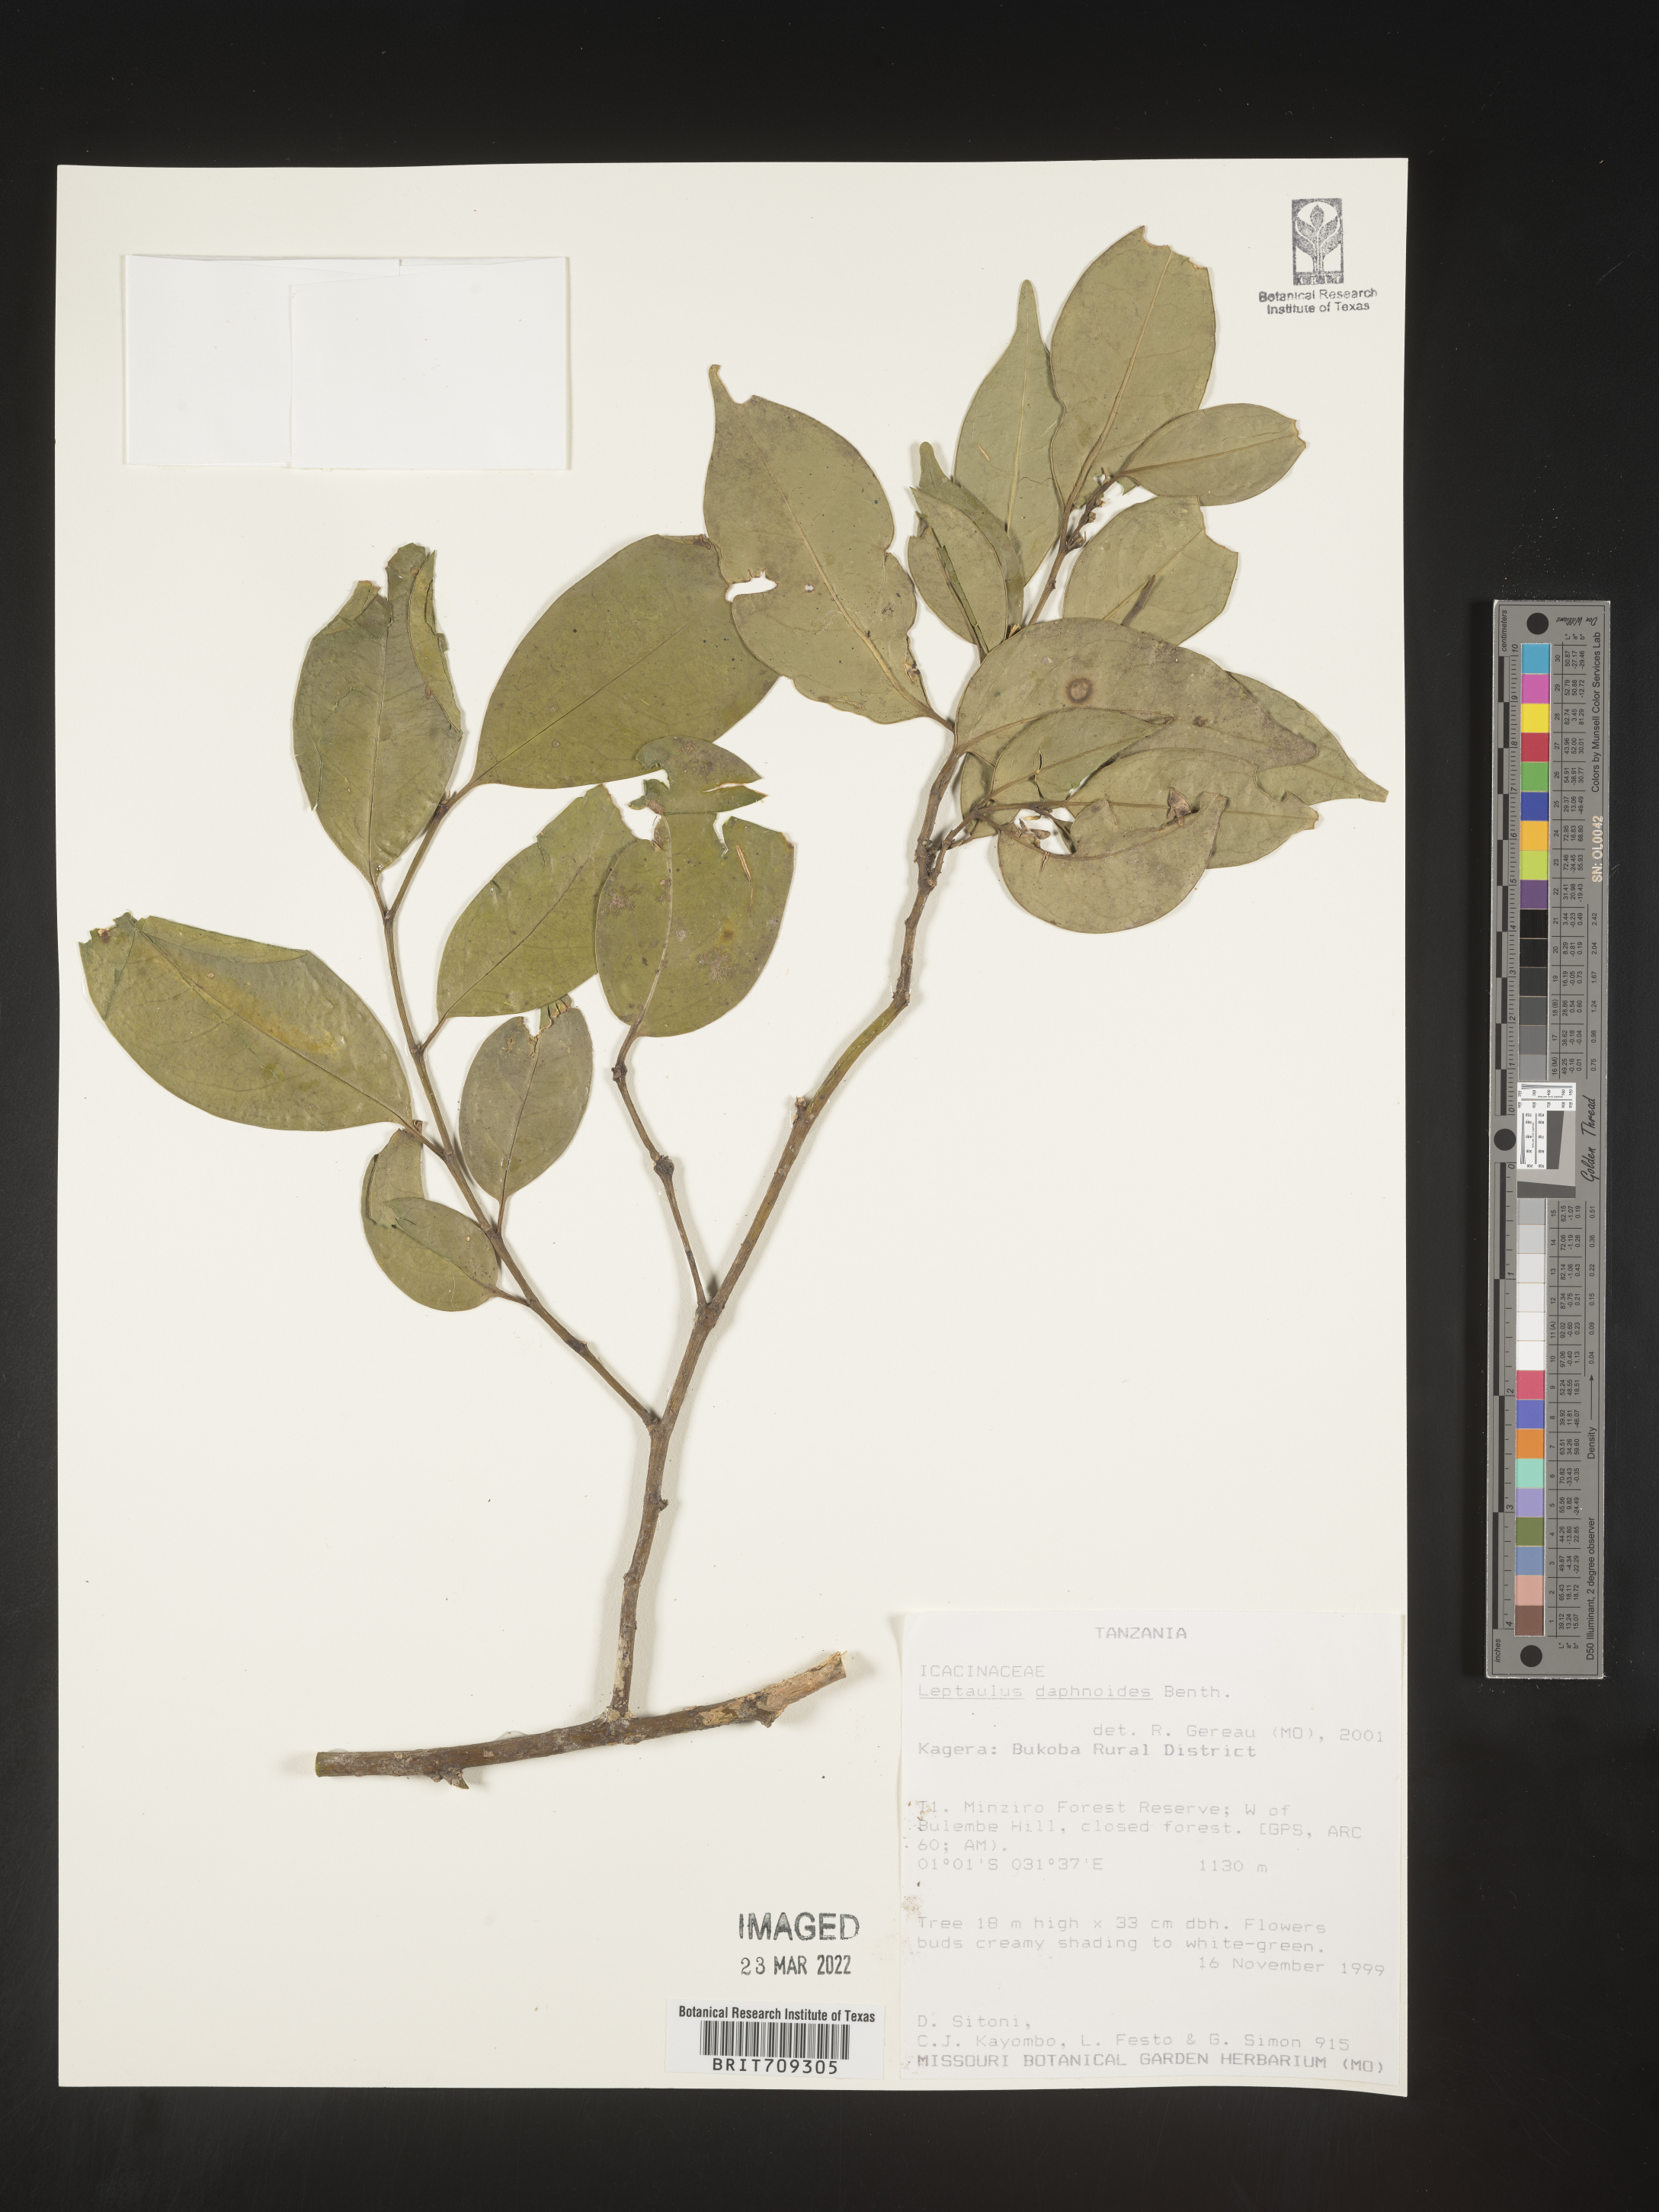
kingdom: Plantae
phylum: Tracheophyta
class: Magnoliopsida
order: Cardiopteridales
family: Cardiopteridaceae
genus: Leptaulus
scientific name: Leptaulus
